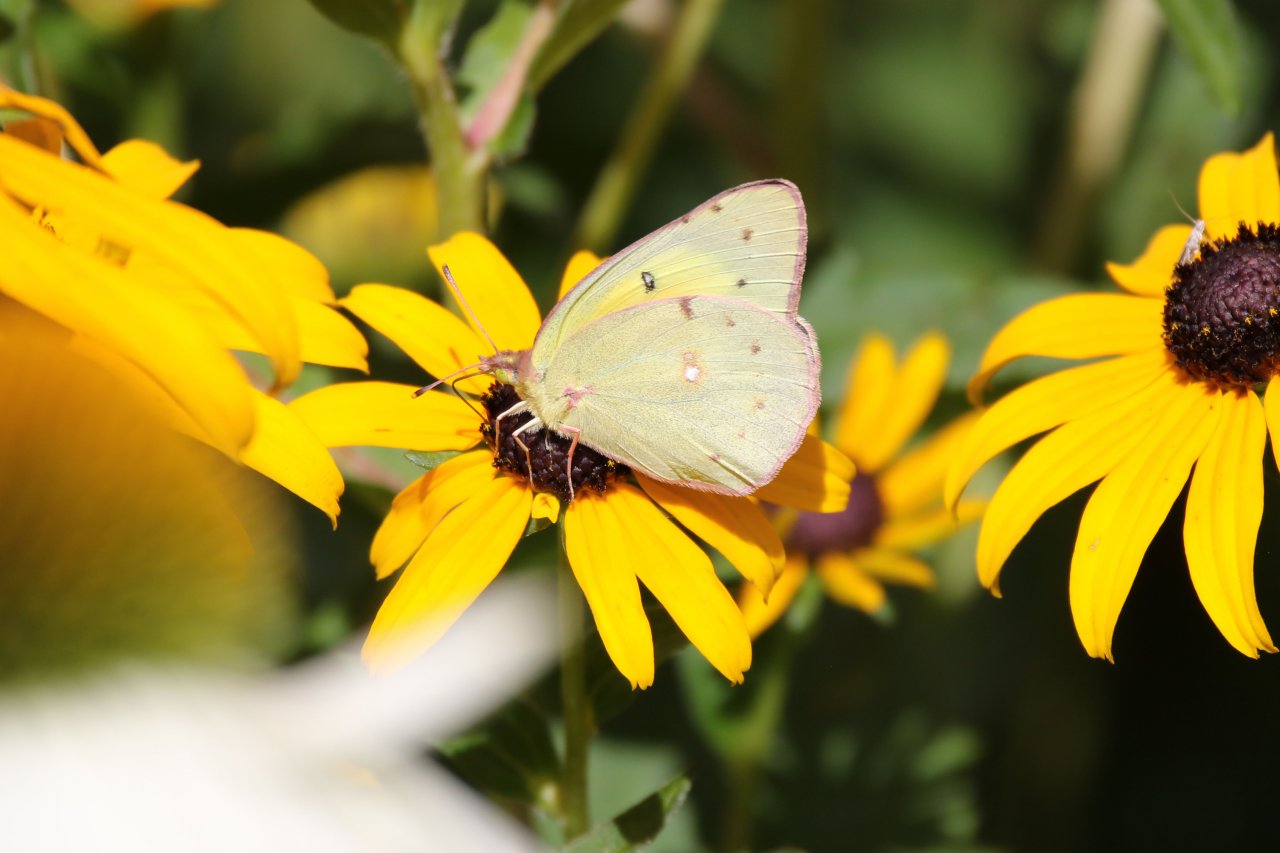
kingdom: Animalia
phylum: Arthropoda
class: Insecta
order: Lepidoptera
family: Pieridae
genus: Colias
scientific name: Colias eurytheme
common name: Orange Sulphur
